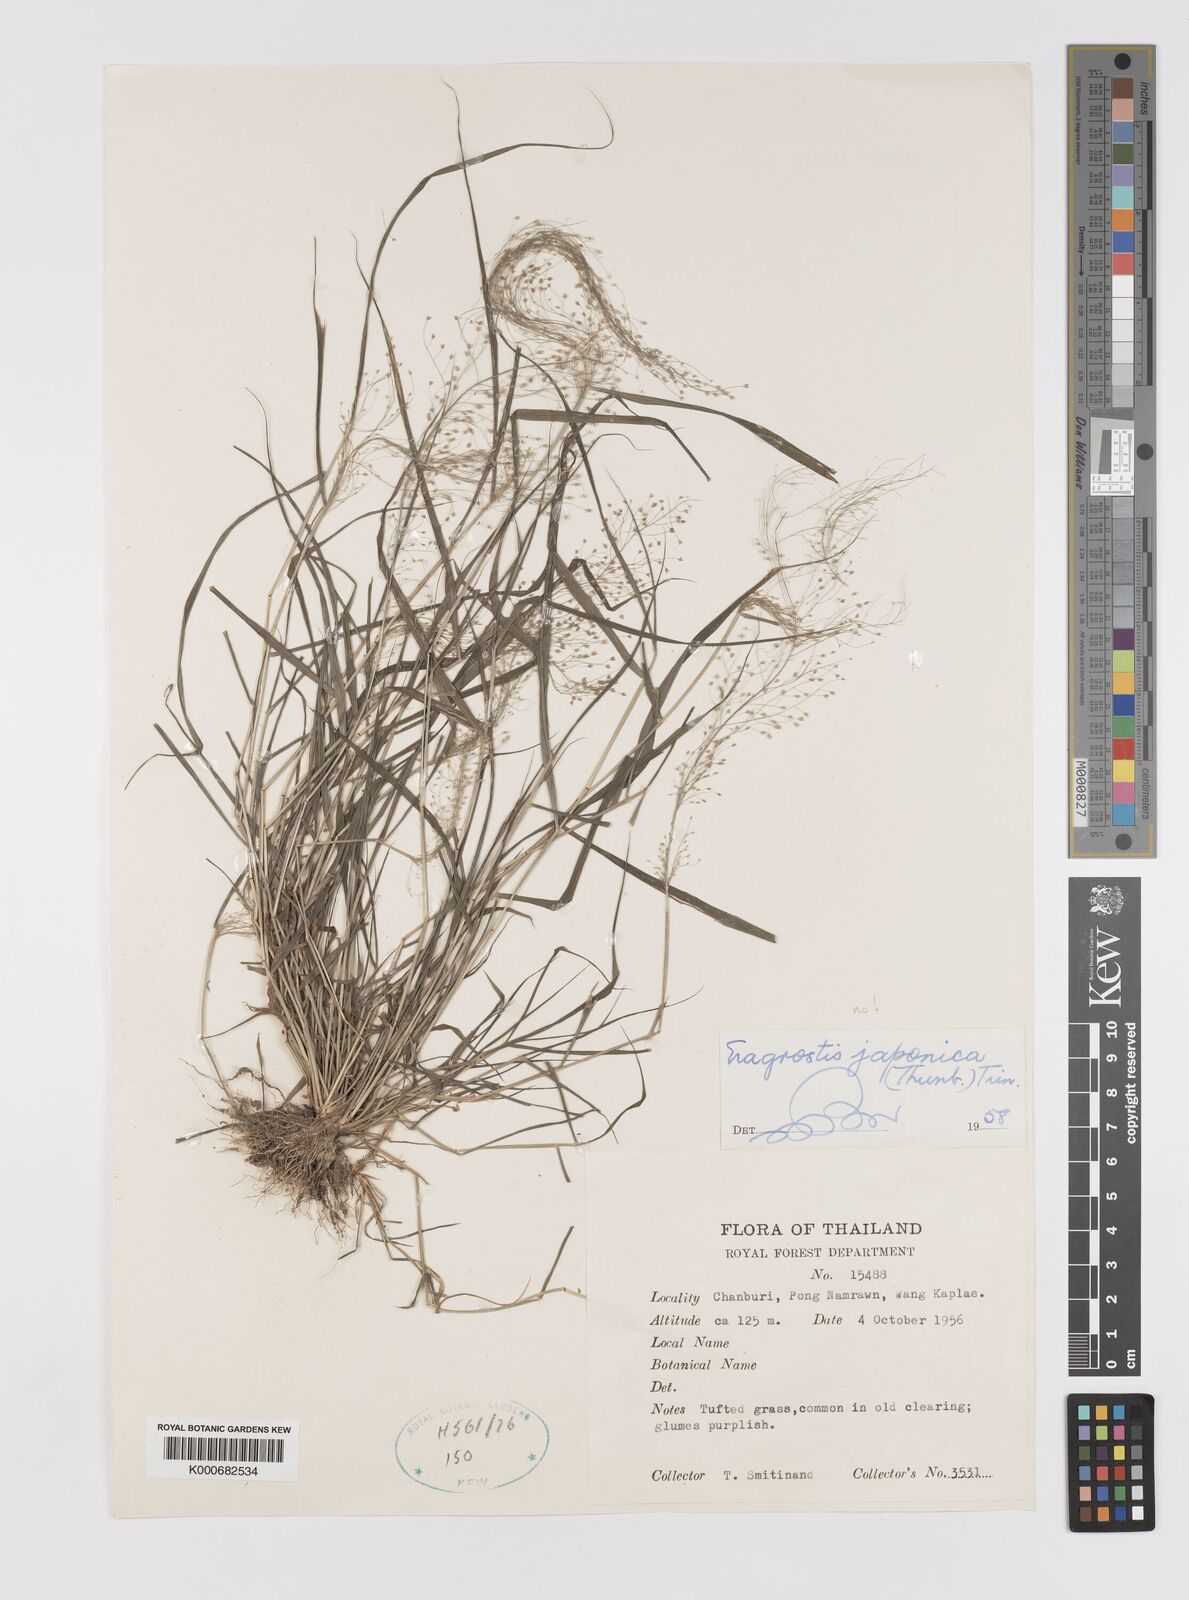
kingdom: Plantae
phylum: Tracheophyta
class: Liliopsida
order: Poales
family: Poaceae
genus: Eragrostis
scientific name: Eragrostis tenella
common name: Japanese lovegrass
